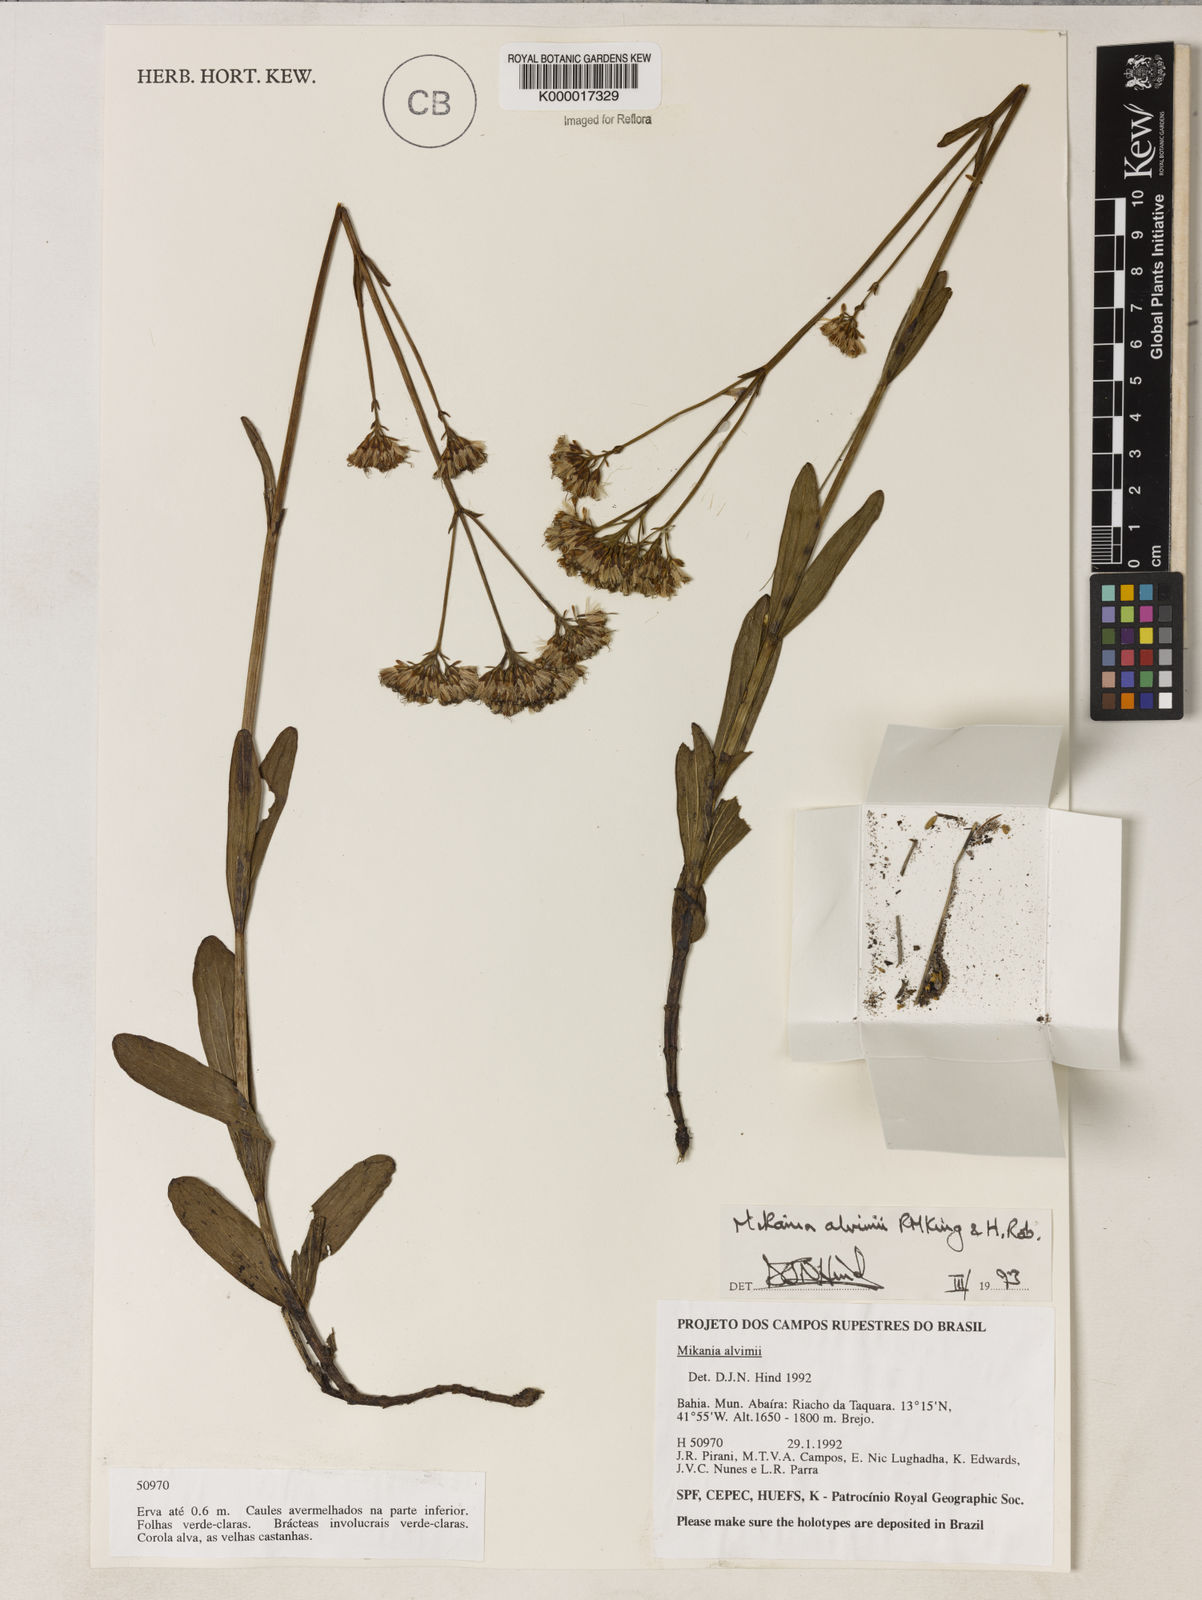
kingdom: Plantae
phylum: Tracheophyta
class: Magnoliopsida
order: Asterales
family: Asteraceae
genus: Mikania
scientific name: Mikania alvimii
